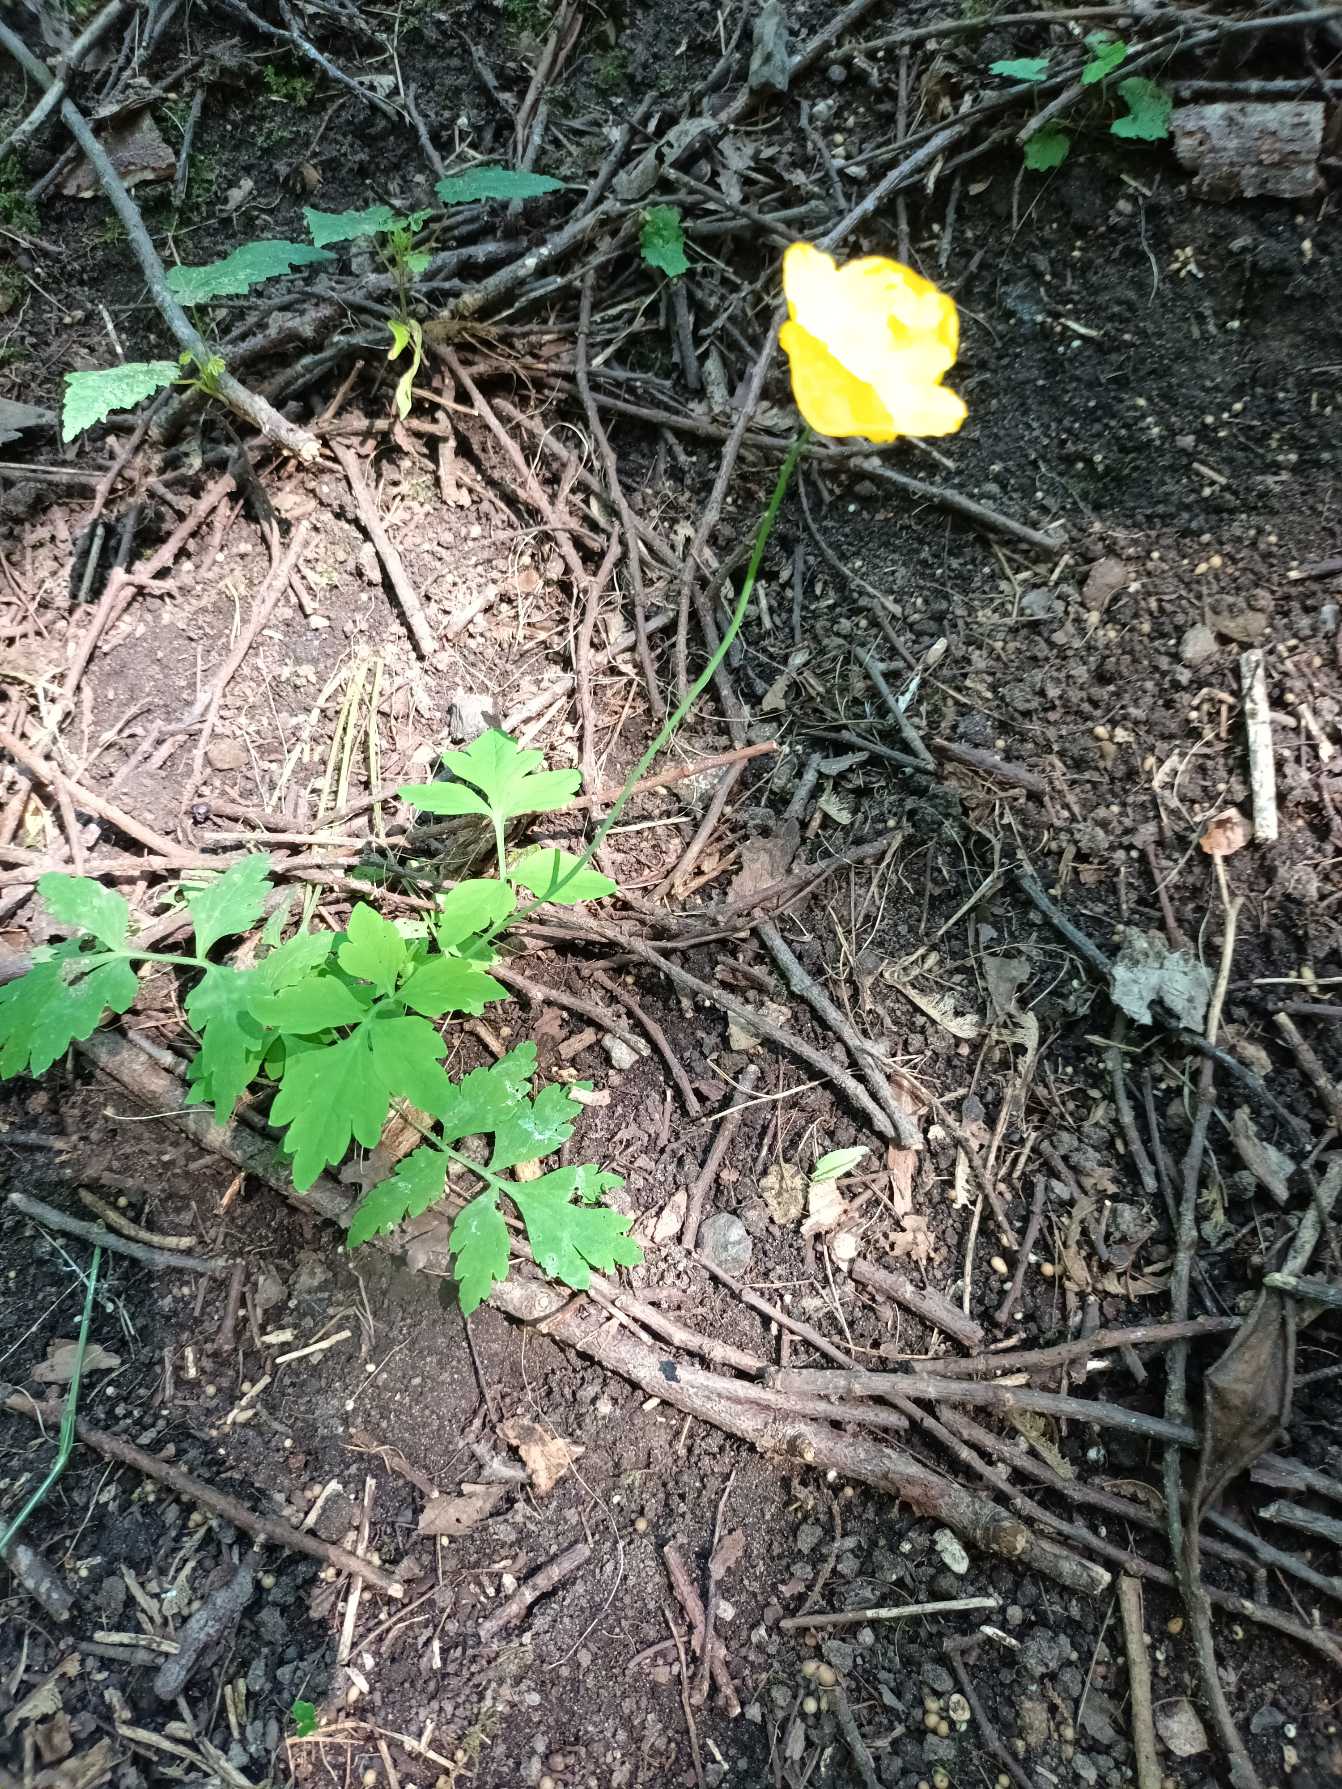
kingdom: Plantae
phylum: Tracheophyta
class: Magnoliopsida
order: Ranunculales
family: Papaveraceae
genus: Papaver
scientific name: Papaver cambricum
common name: Skov-valmue
